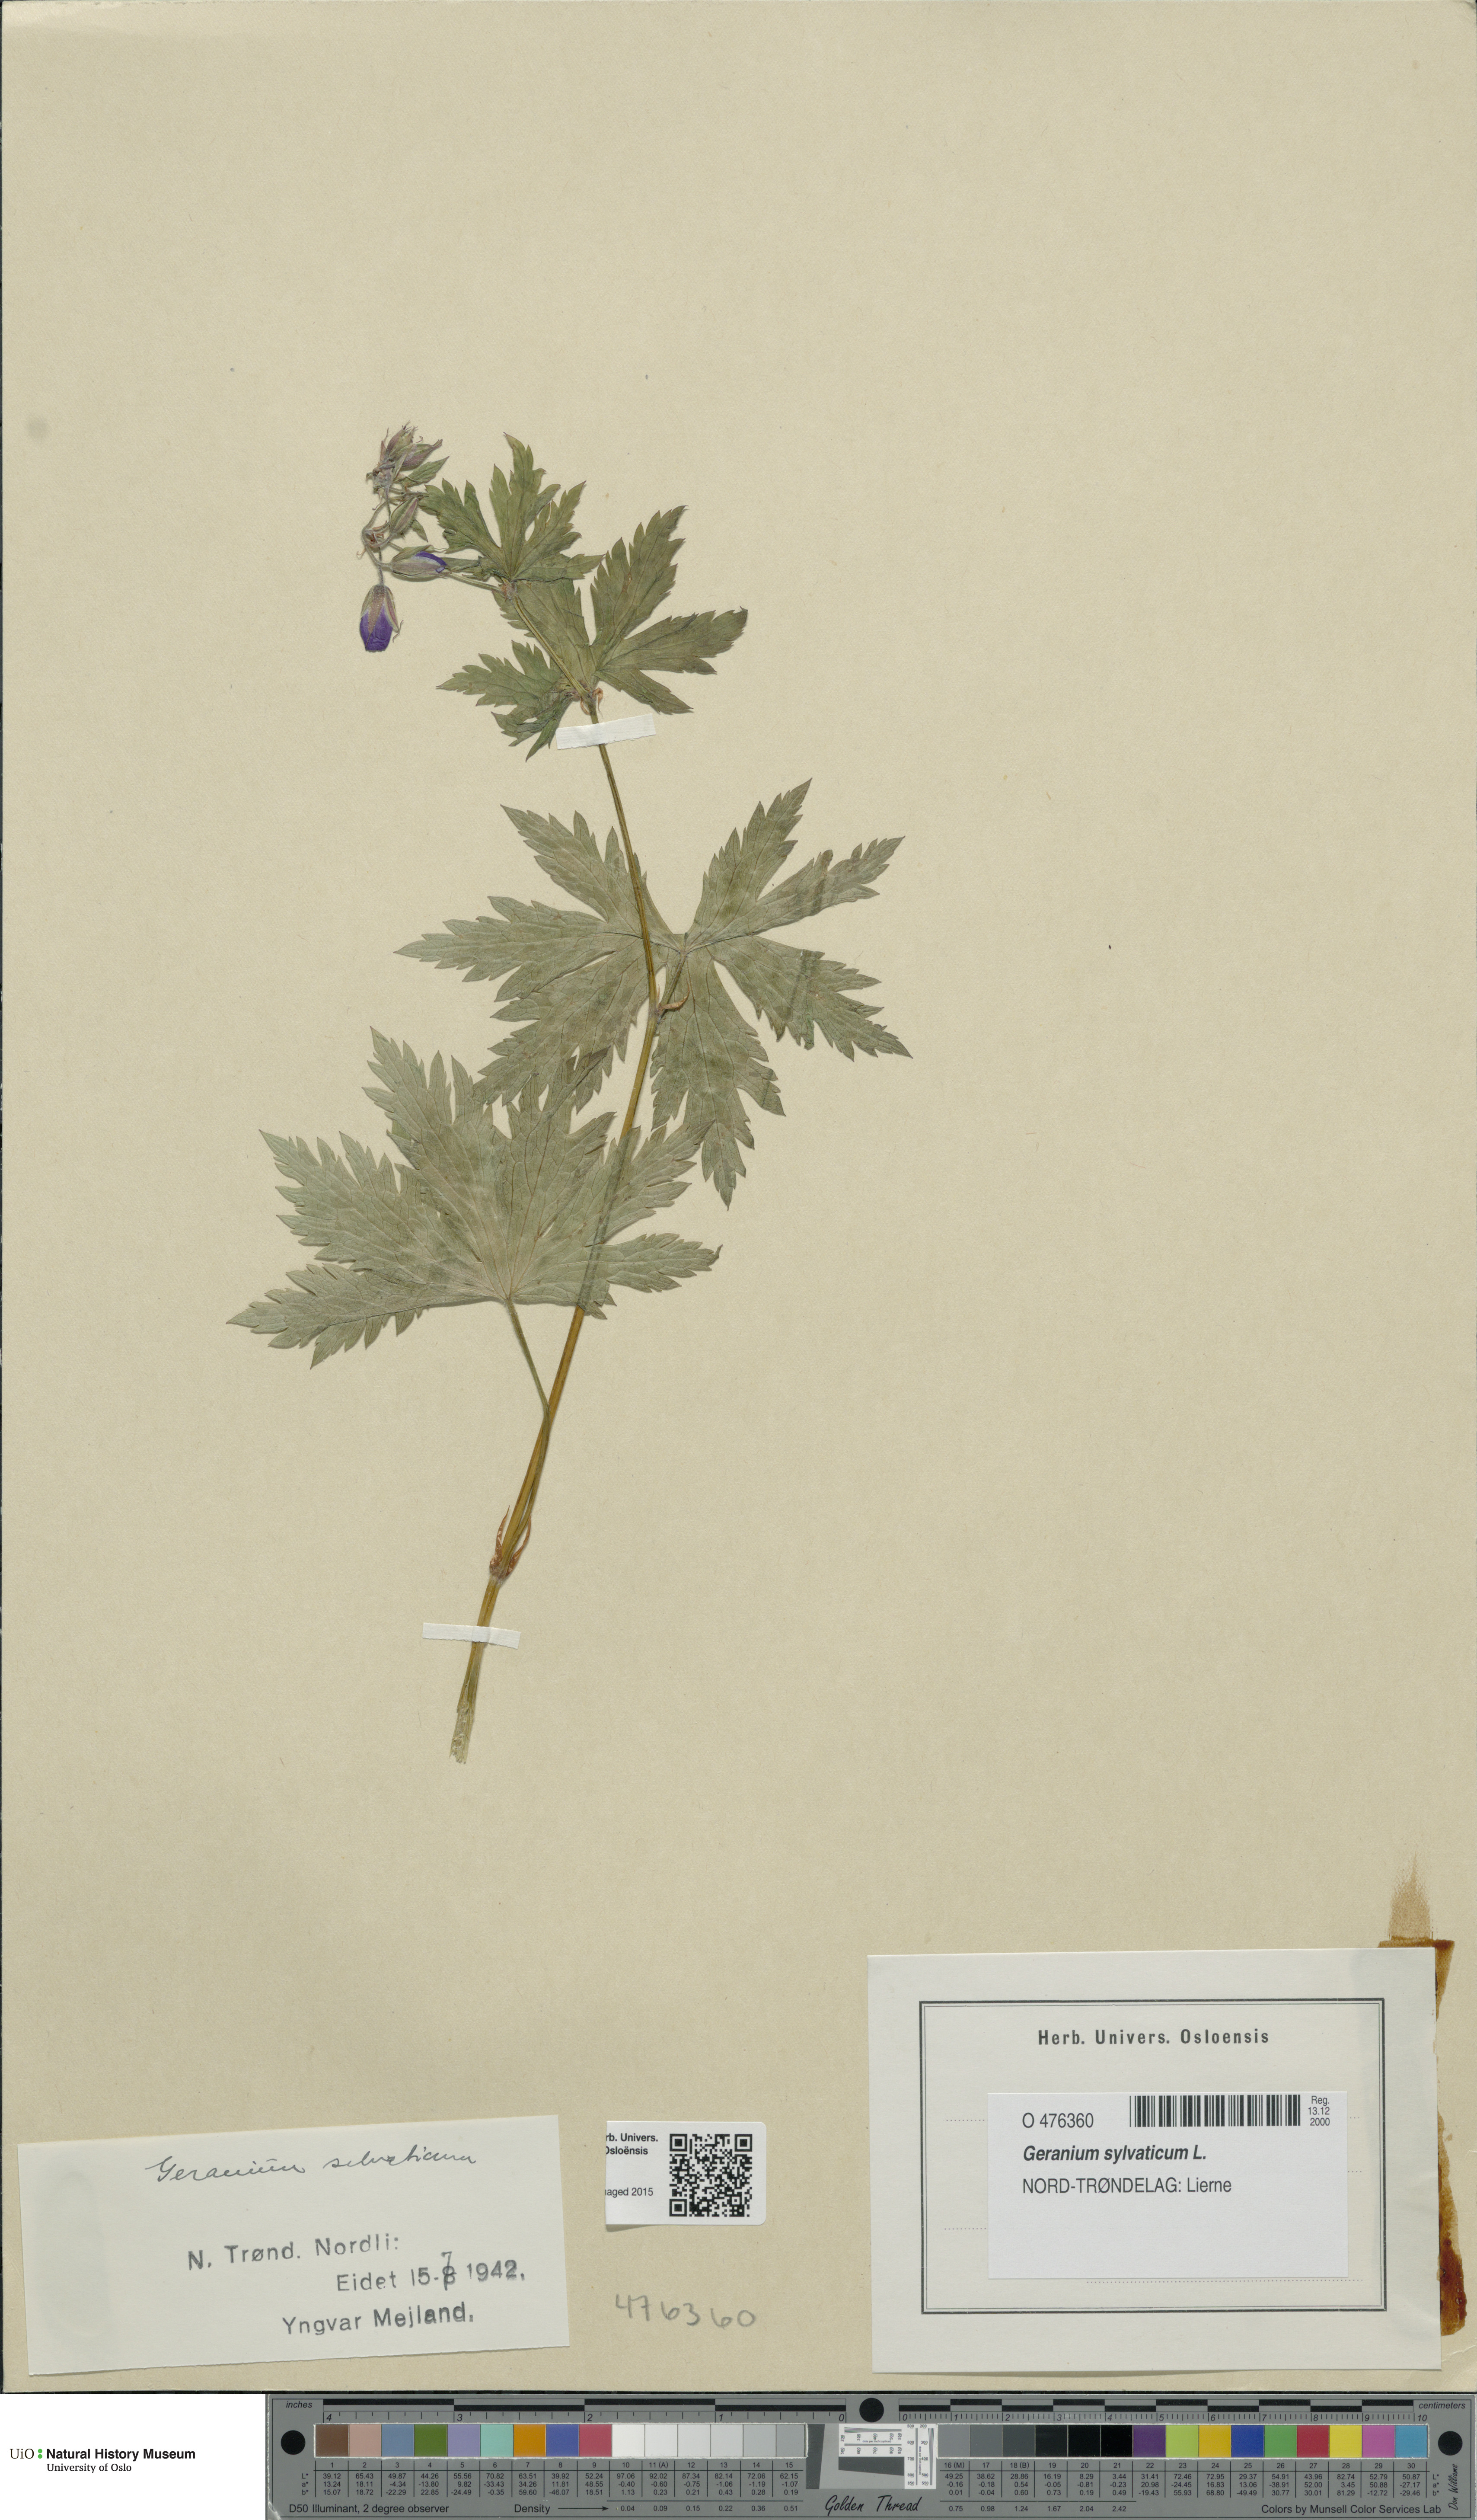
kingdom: Plantae
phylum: Tracheophyta
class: Magnoliopsida
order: Geraniales
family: Geraniaceae
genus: Geranium
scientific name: Geranium sylvaticum
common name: Wood crane's-bill
